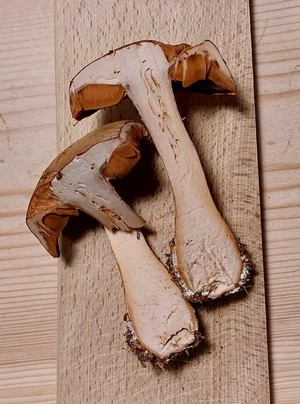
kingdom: Fungi
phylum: Basidiomycota
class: Agaricomycetes
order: Agaricales
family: Cortinariaceae
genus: Cortinarius
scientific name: Cortinarius alborufescens
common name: flosset slørhat
